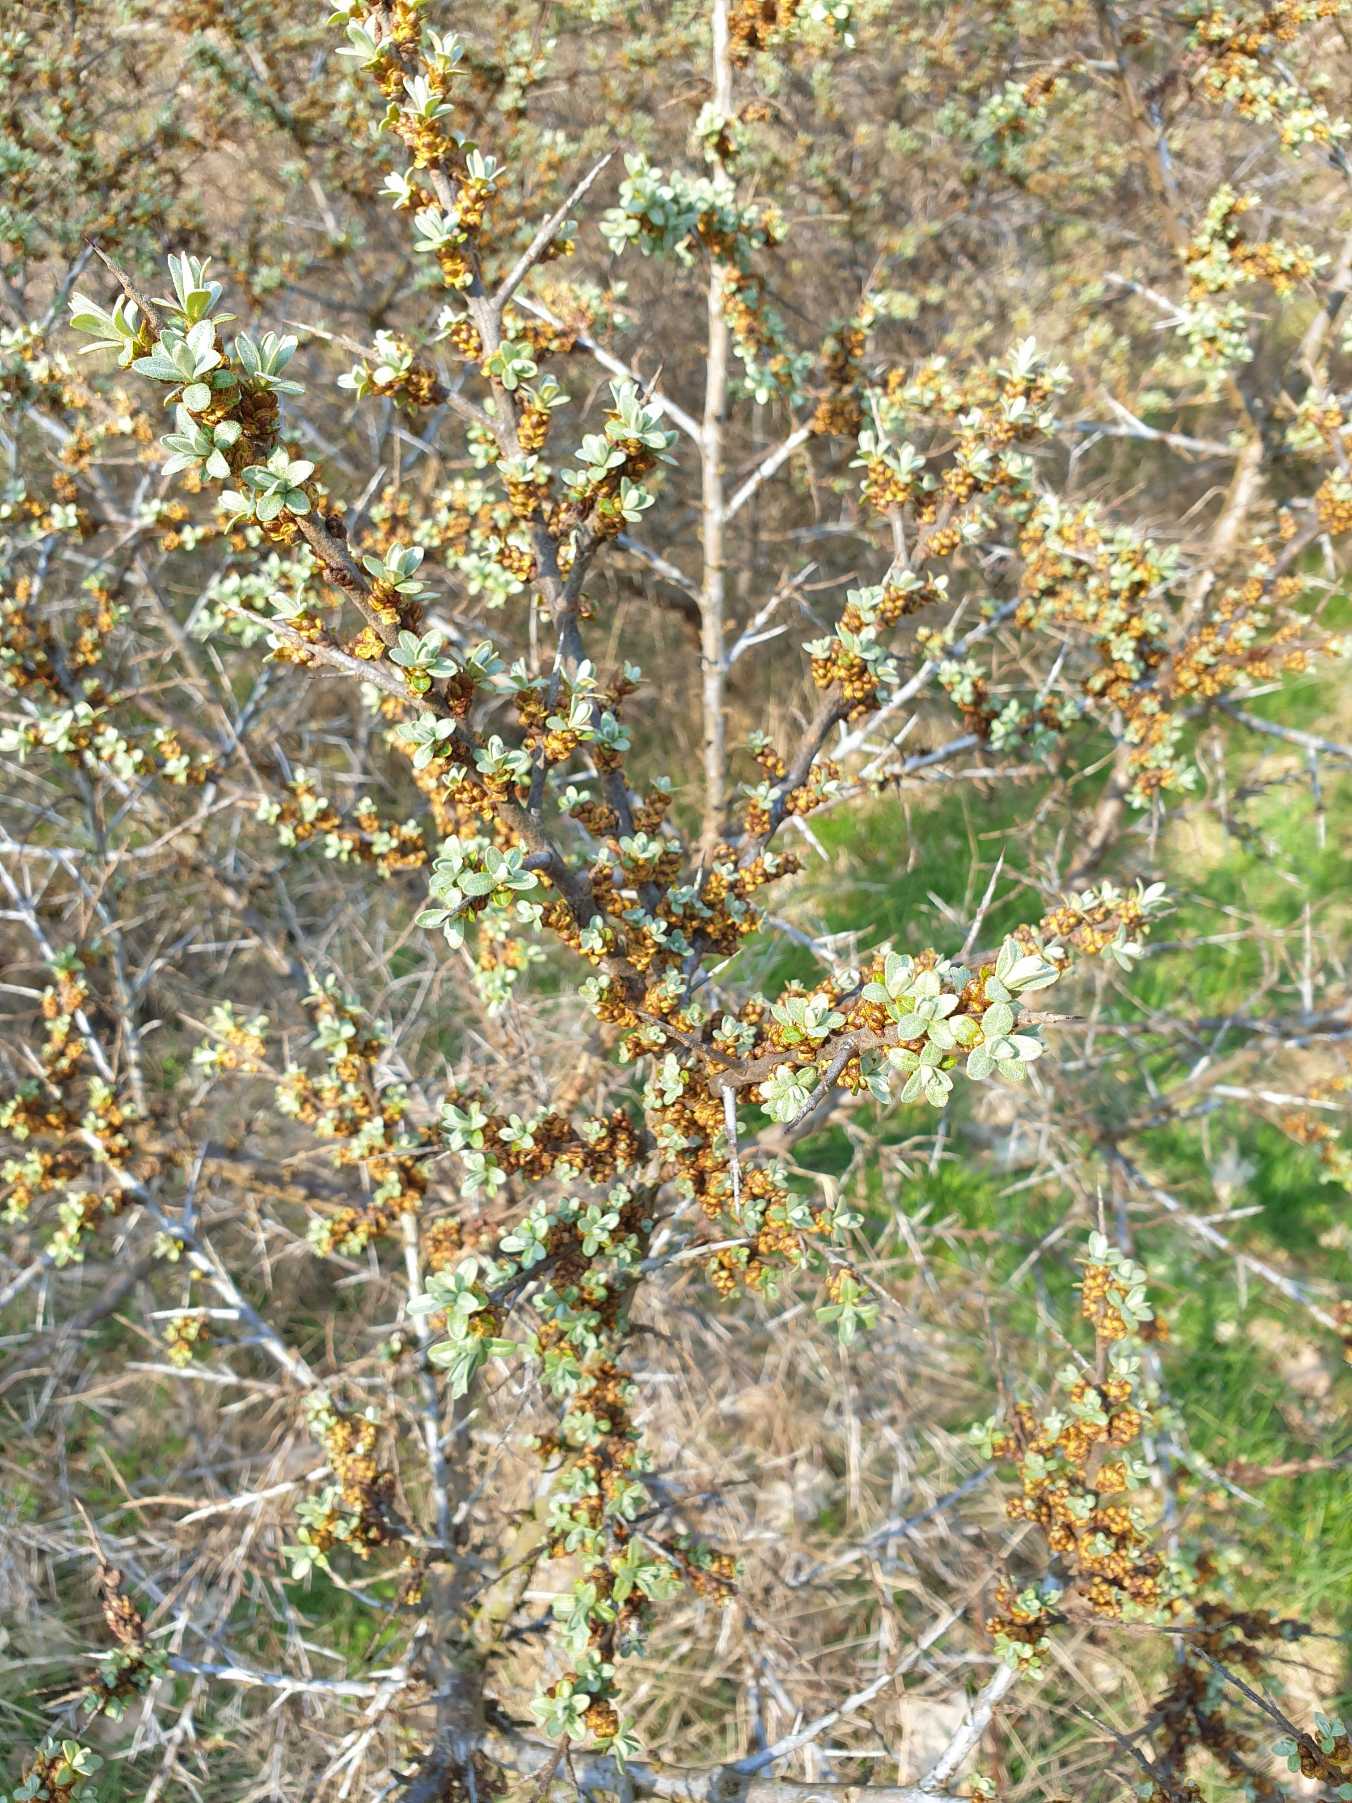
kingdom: Plantae
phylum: Tracheophyta
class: Magnoliopsida
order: Rosales
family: Elaeagnaceae
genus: Hippophae
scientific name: Hippophae rhamnoides
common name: Havtorn
